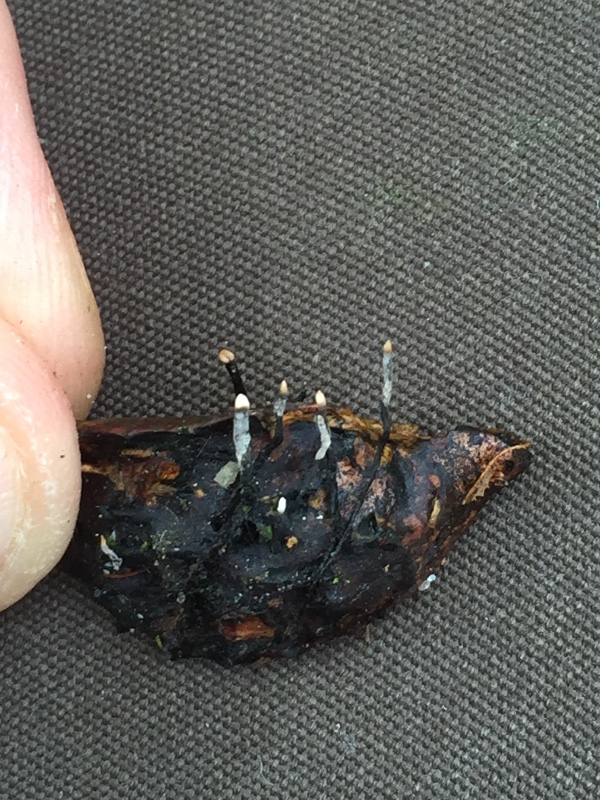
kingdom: Fungi
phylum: Ascomycota
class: Sordariomycetes
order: Xylariales
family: Xylariaceae
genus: Xylaria
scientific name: Xylaria carpophila
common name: bogskål-stødsvamp
